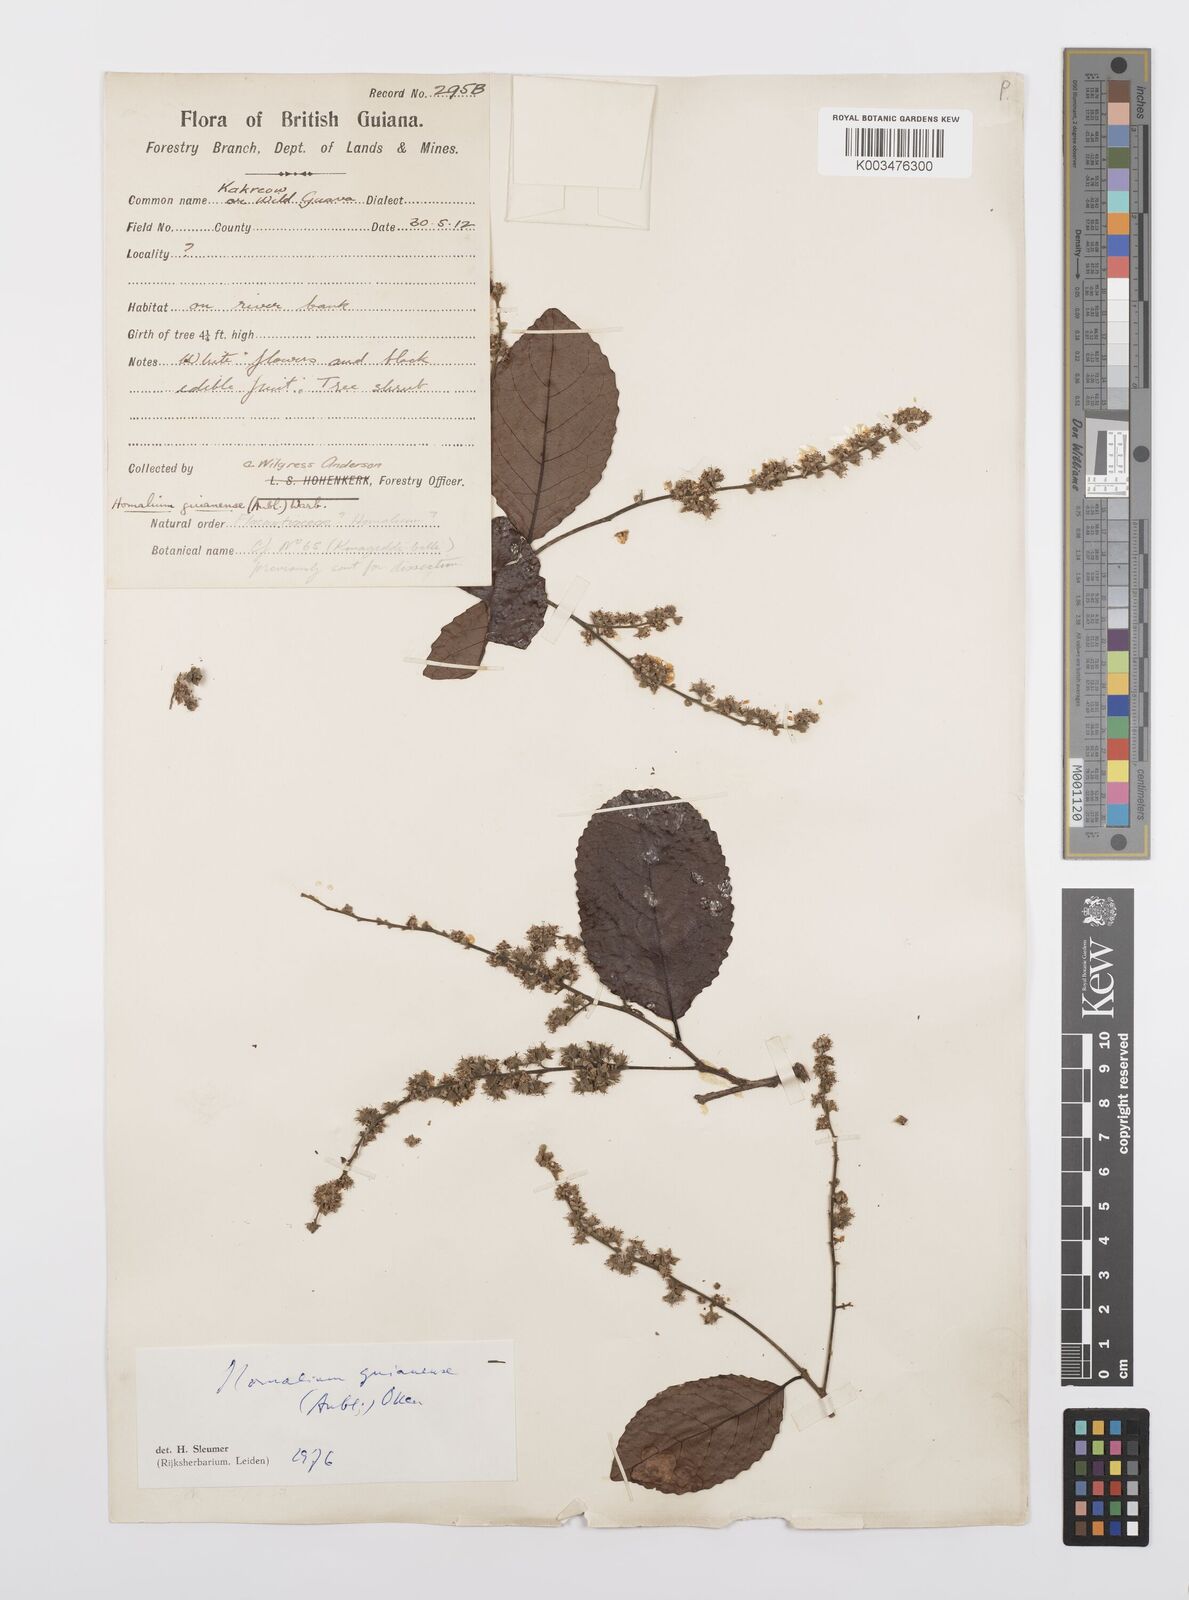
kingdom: Plantae
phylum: Tracheophyta
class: Magnoliopsida
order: Malpighiales
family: Salicaceae
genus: Homalium
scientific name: Homalium guianense
